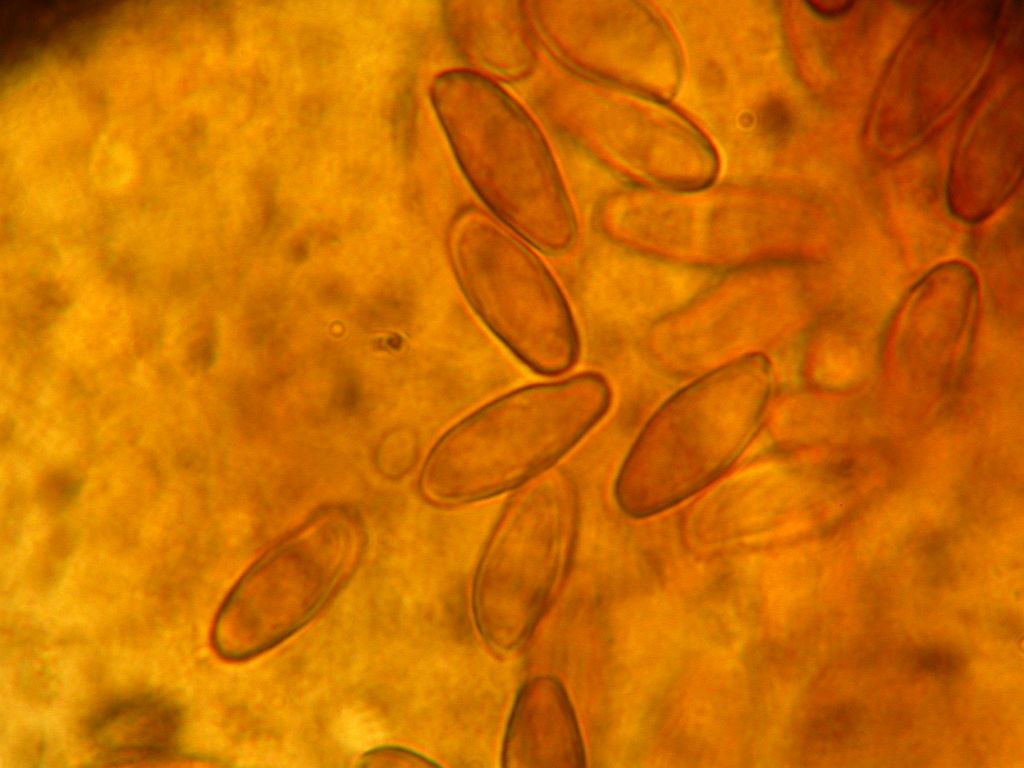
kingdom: Fungi
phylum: Basidiomycota
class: Agaricomycetes
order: Boletales
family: Boletaceae
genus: Xerocomellus
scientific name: Xerocomellus ripariellus
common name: sump-rørhat
